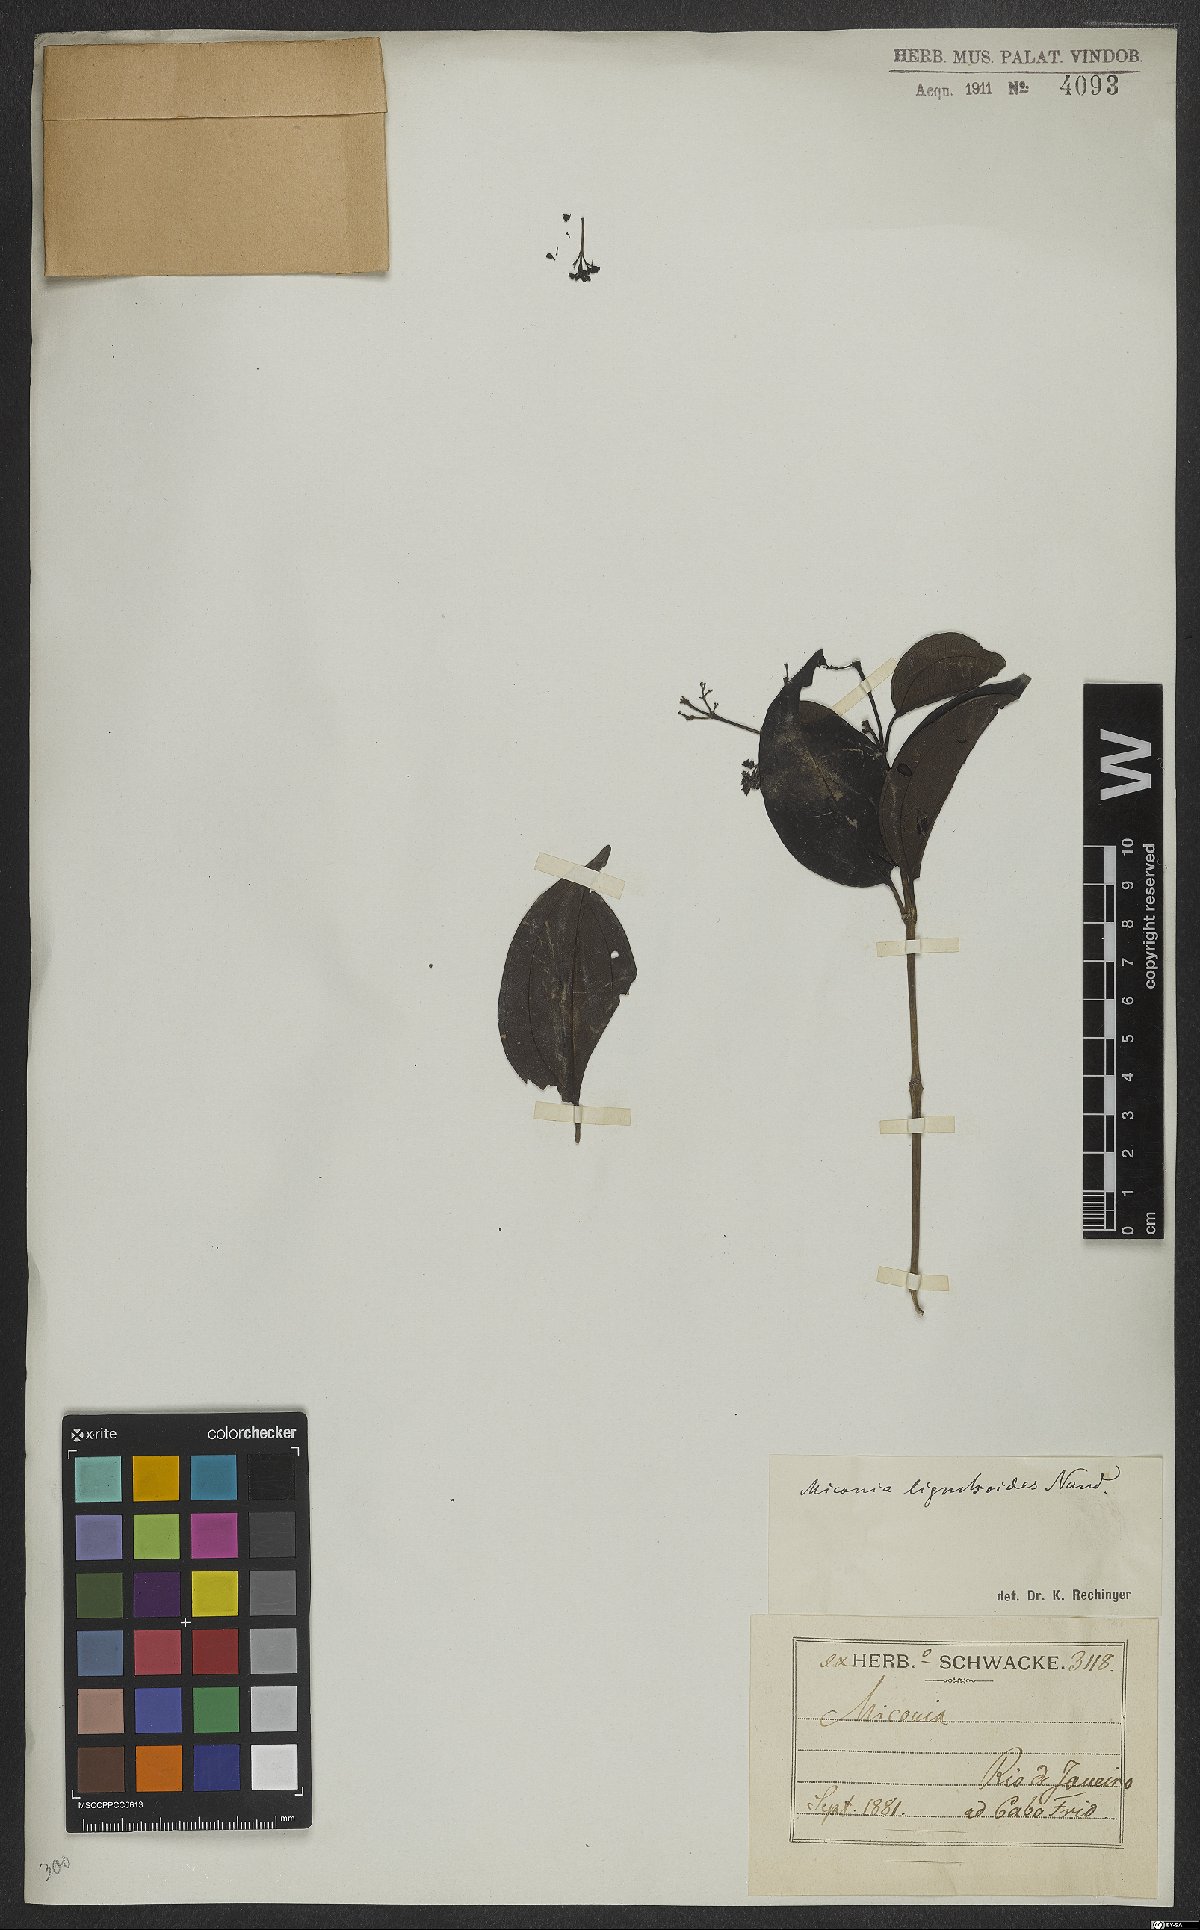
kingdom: Plantae
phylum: Tracheophyta
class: Magnoliopsida
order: Myrtales
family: Melastomataceae
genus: Miconia
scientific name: Miconia ligustroides
